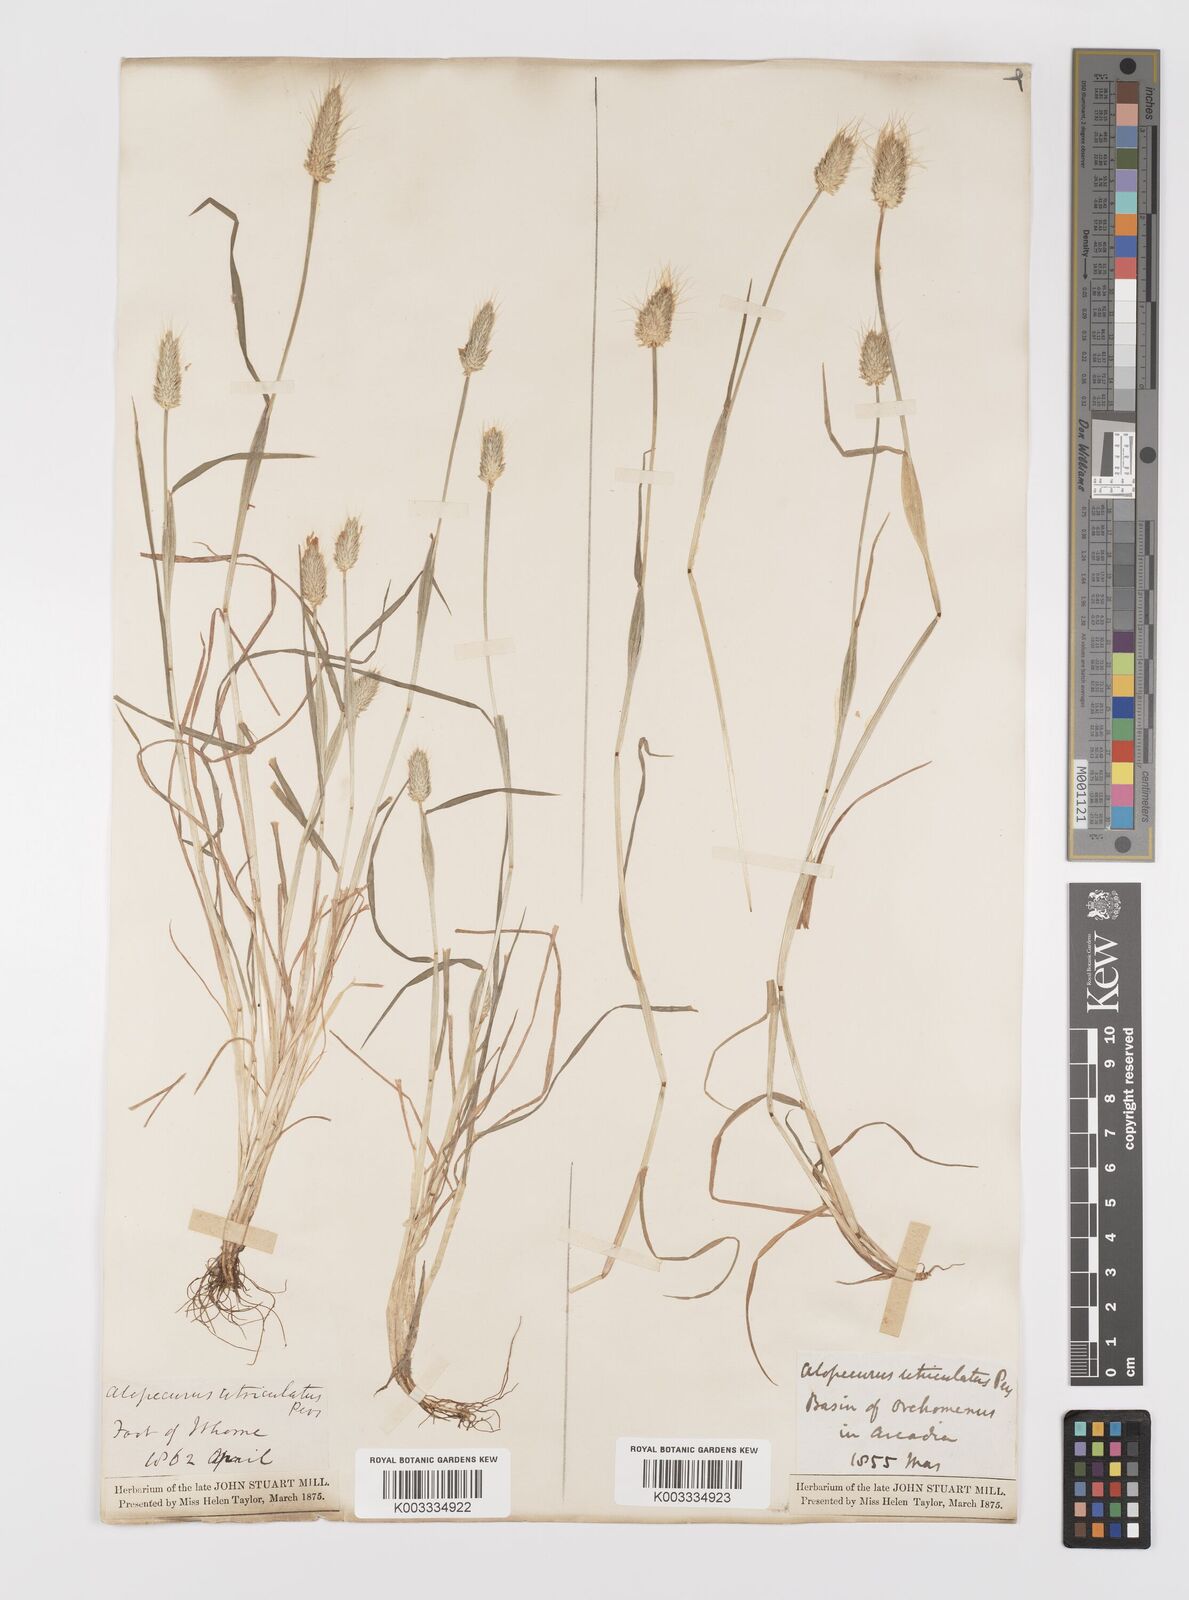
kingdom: Plantae
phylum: Tracheophyta
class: Liliopsida
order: Poales
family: Poaceae
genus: Alopecurus
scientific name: Alopecurus rendlei
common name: Rendle's meadow foxtail
